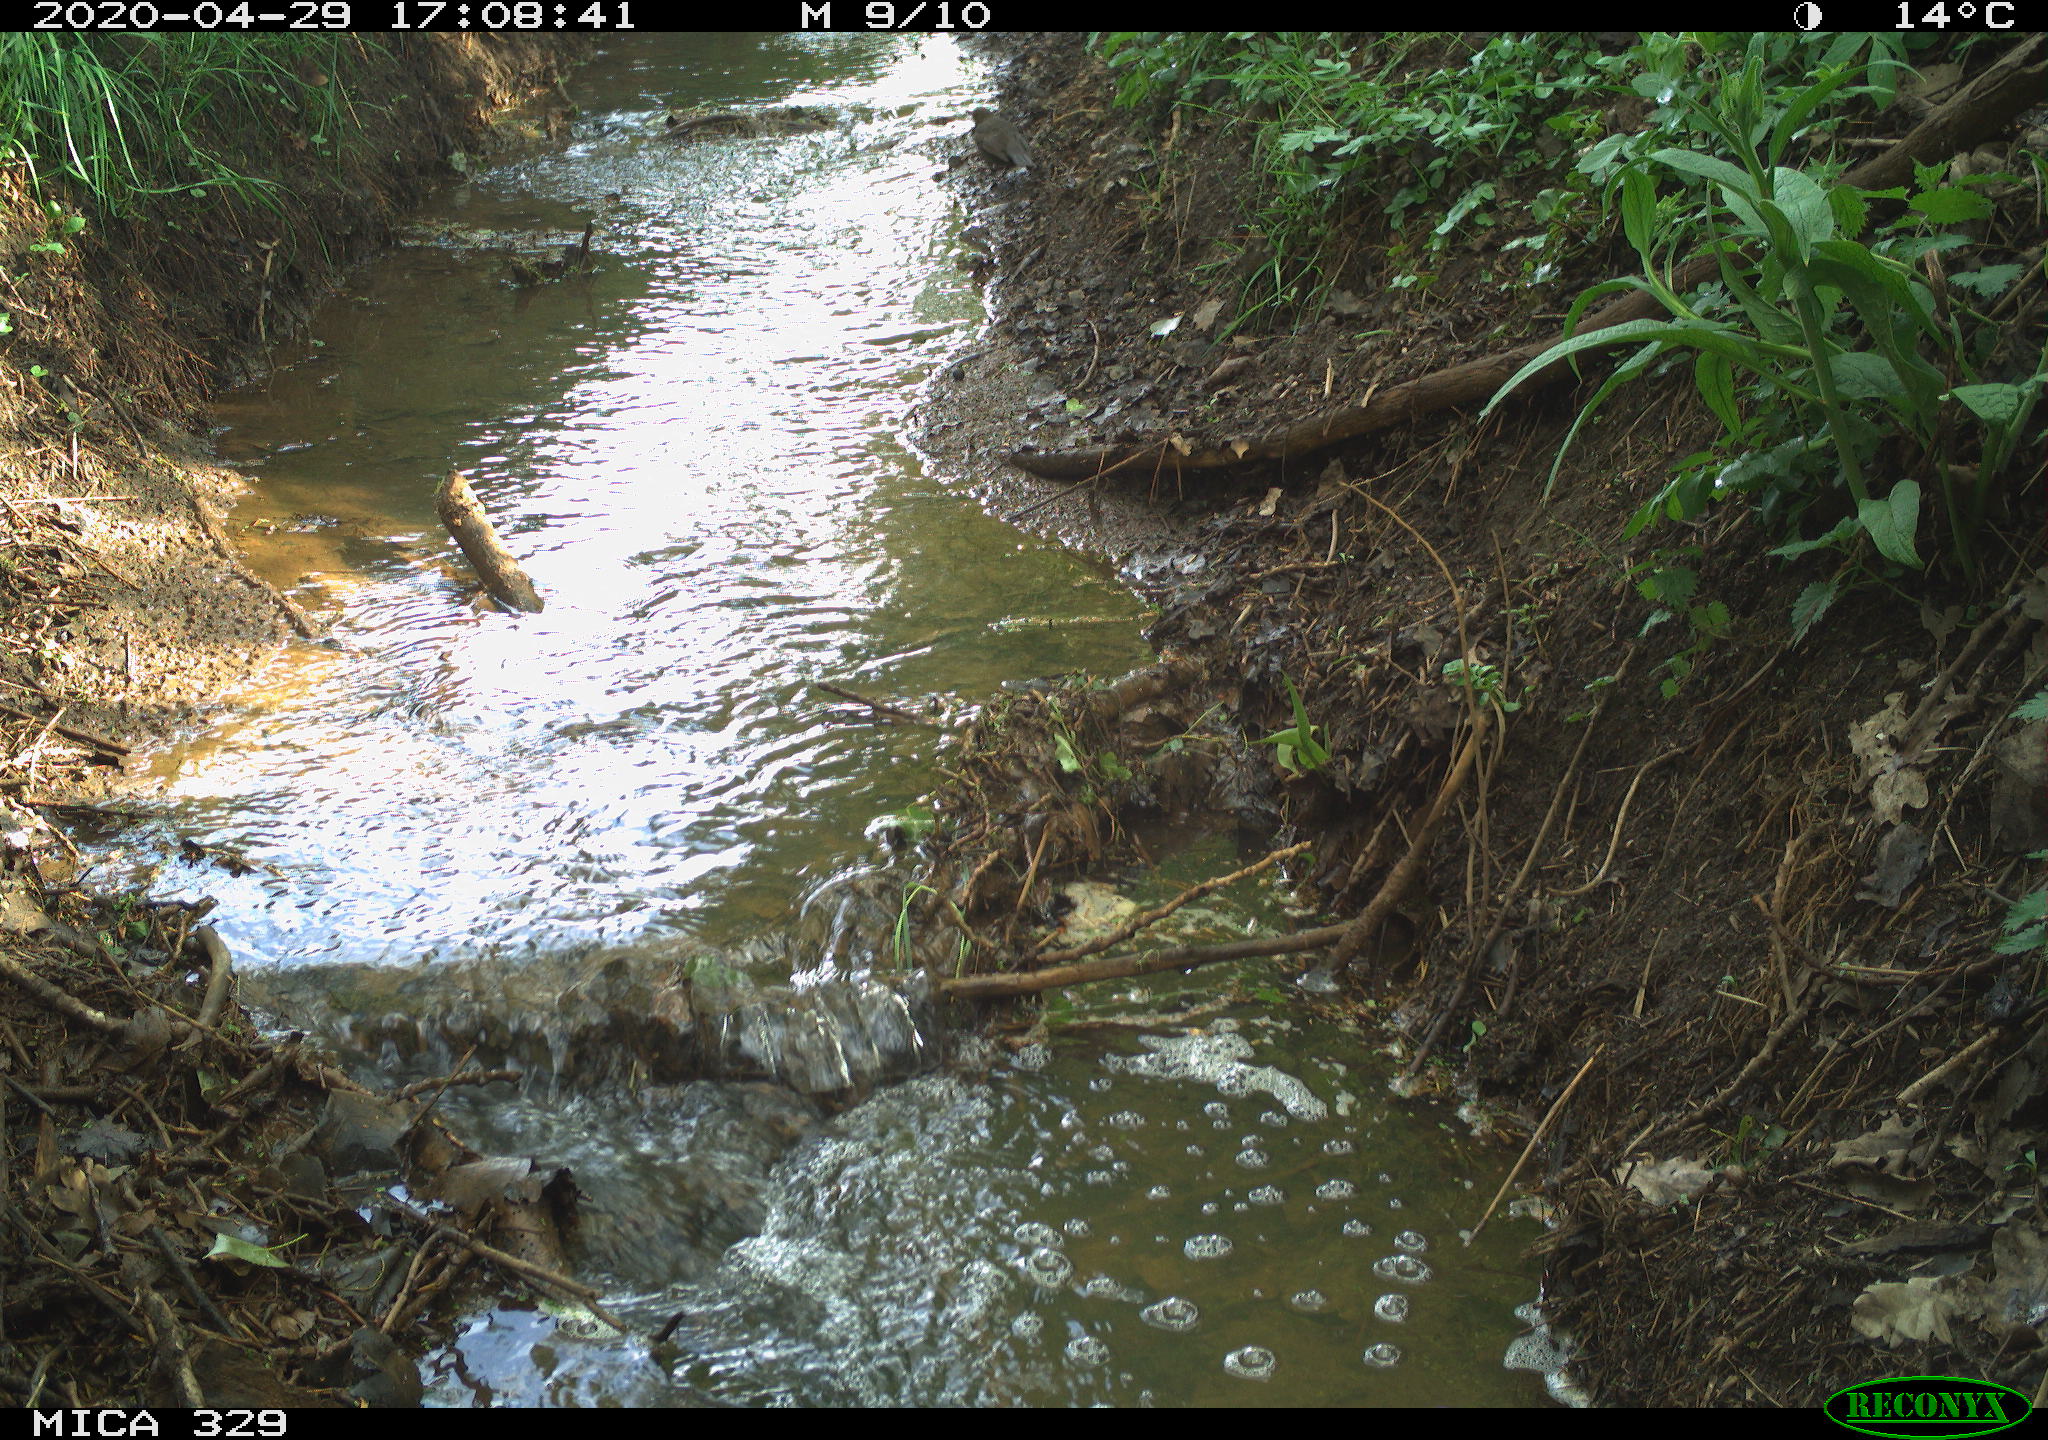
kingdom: Animalia
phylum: Chordata
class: Aves
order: Passeriformes
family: Turdidae
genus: Turdus
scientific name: Turdus merula
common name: Common blackbird
